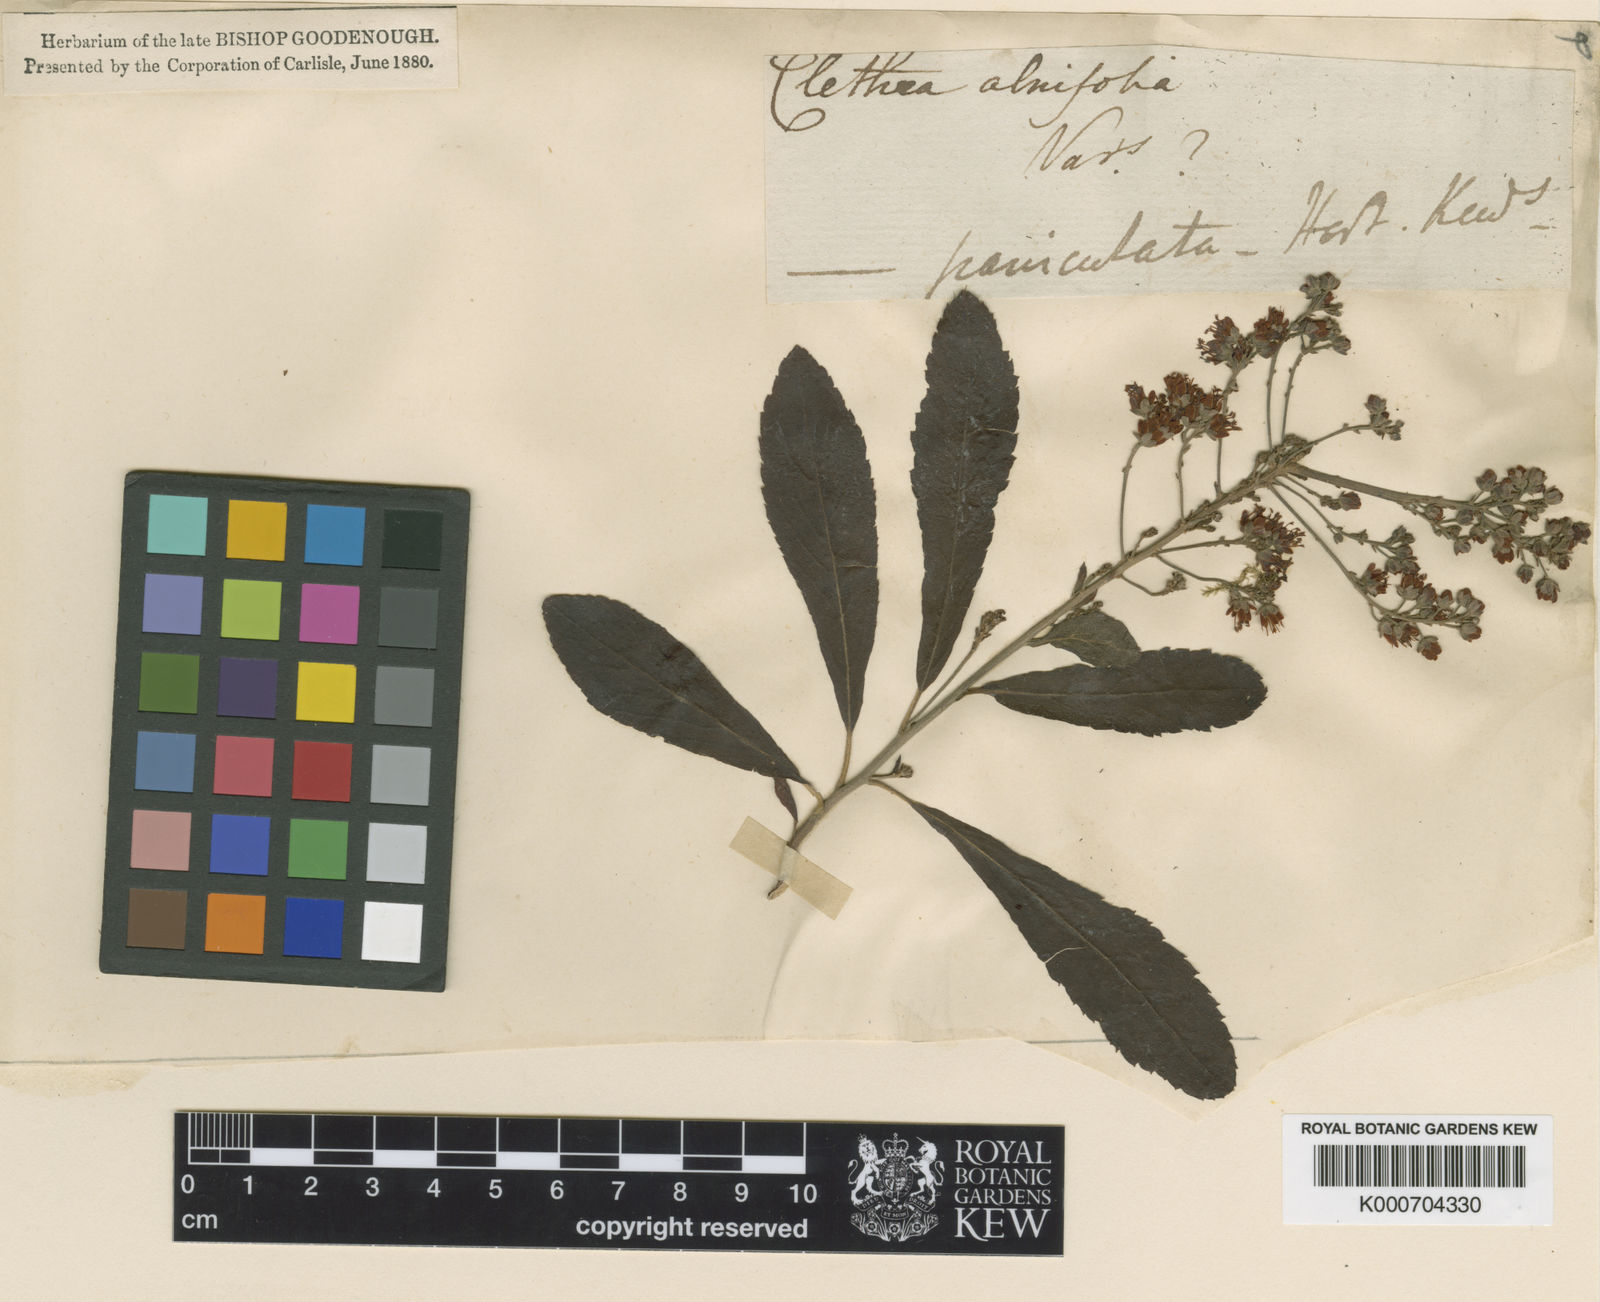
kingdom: Plantae
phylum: Tracheophyta
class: Magnoliopsida
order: Ericales
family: Clethraceae
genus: Clethra
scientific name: Clethra
